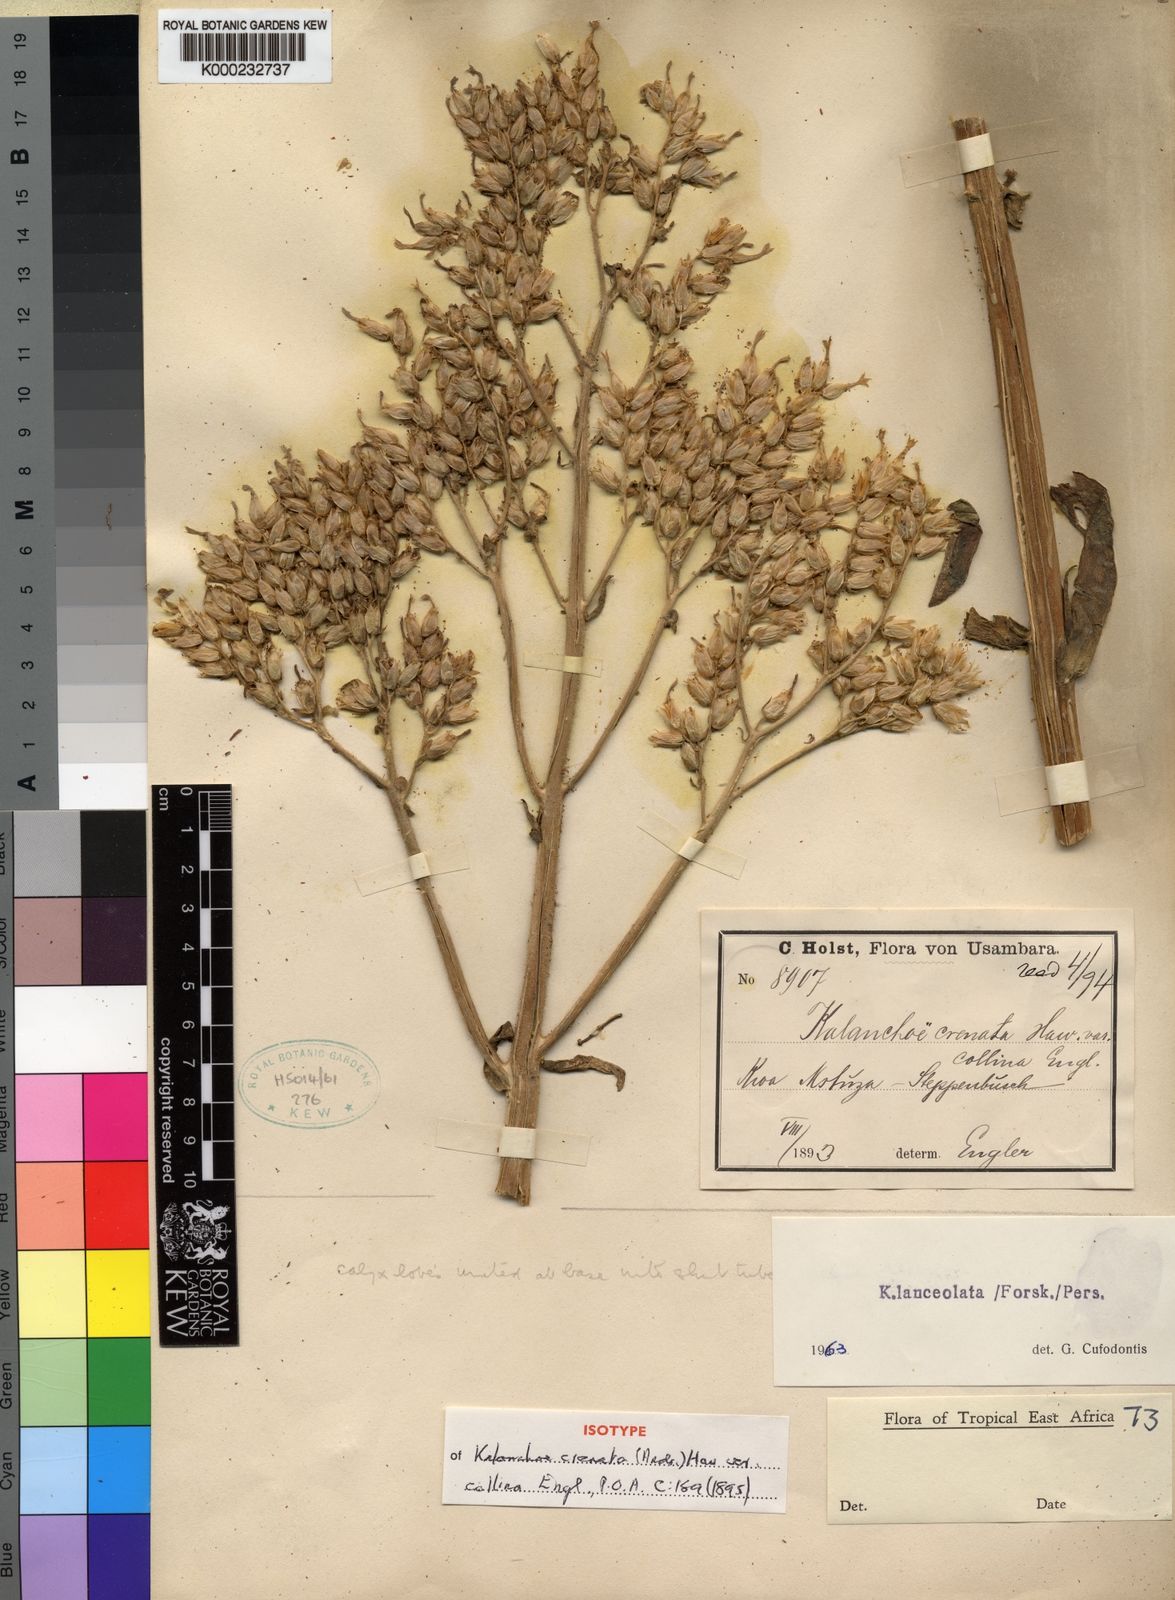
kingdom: Plantae
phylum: Tracheophyta
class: Magnoliopsida
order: Saxifragales
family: Crassulaceae
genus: Kalanchoe
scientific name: Kalanchoe lanceolata
